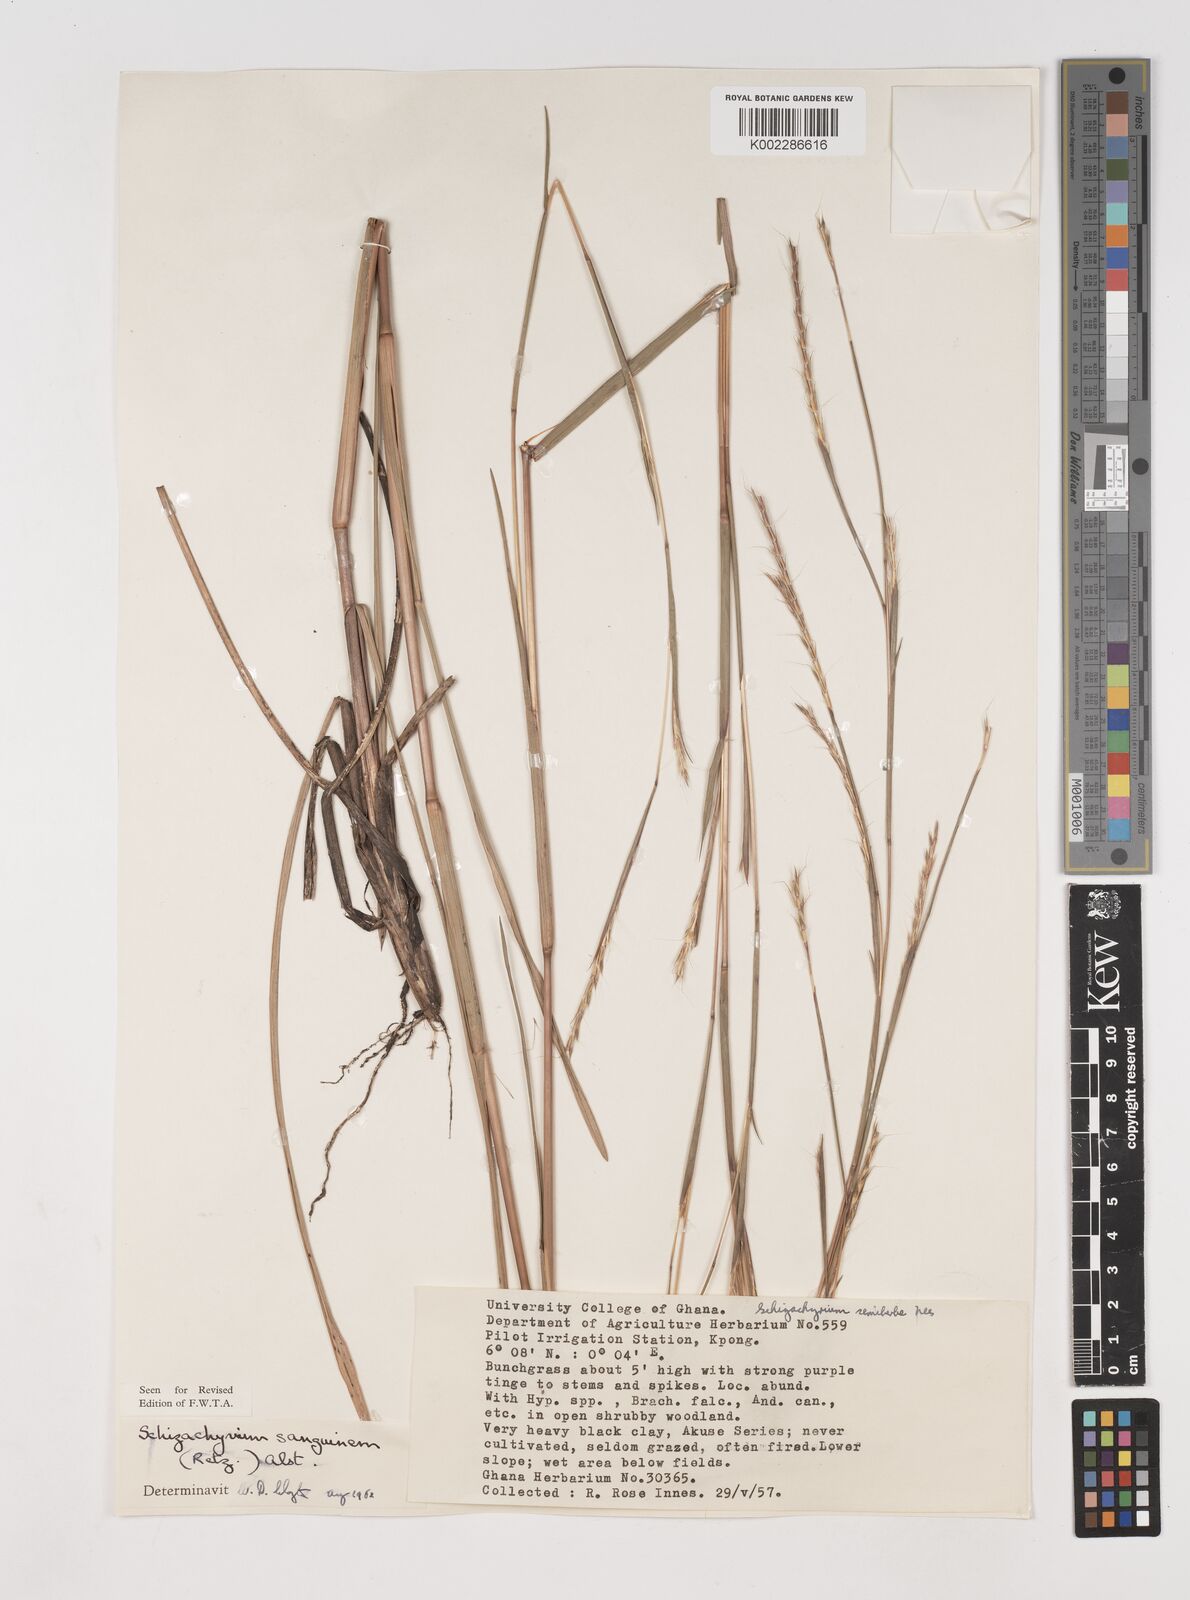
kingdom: Plantae
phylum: Tracheophyta
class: Liliopsida
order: Poales
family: Poaceae
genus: Schizachyrium
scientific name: Schizachyrium sanguineum
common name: Crimson bluestem
